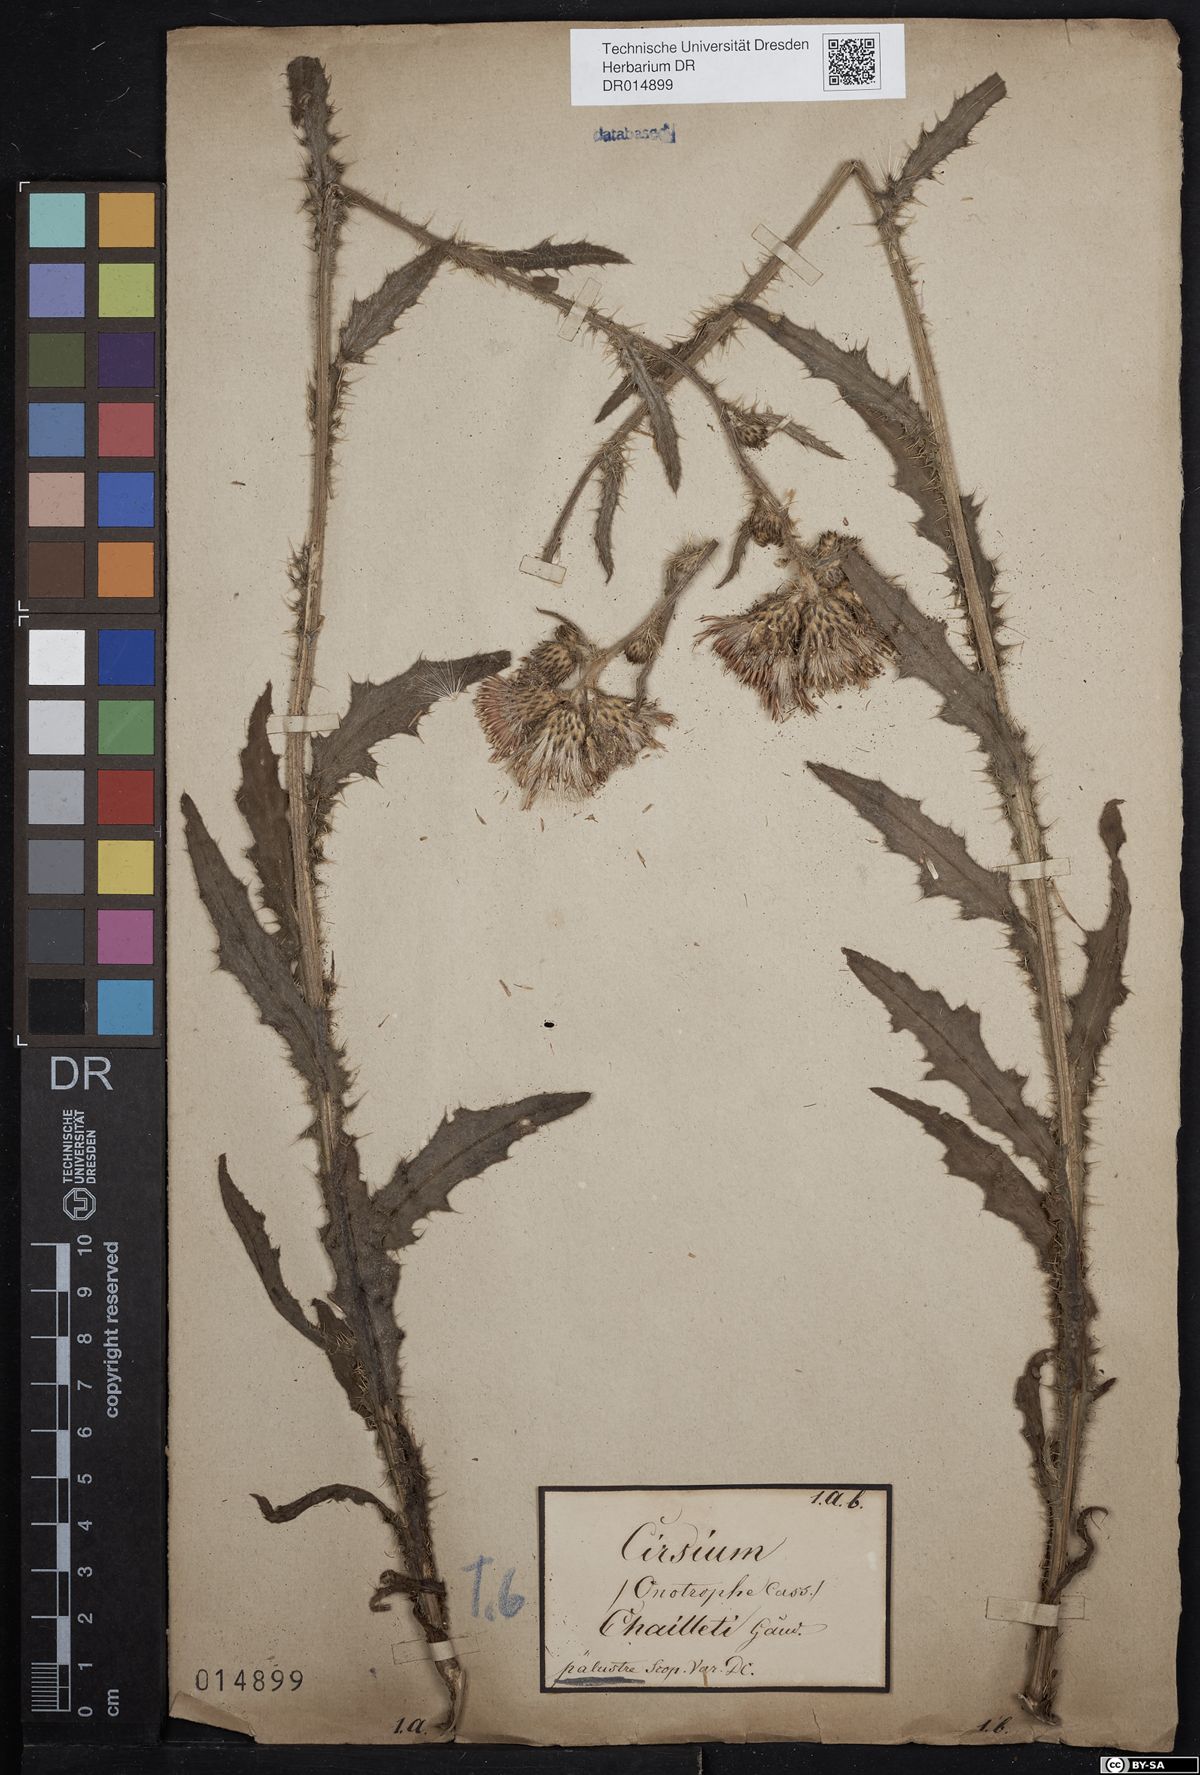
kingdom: Plantae
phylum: Tracheophyta
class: Magnoliopsida
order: Asterales
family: Asteraceae
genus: Cirsium
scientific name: Cirsium palustre
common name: Marsh thistle
